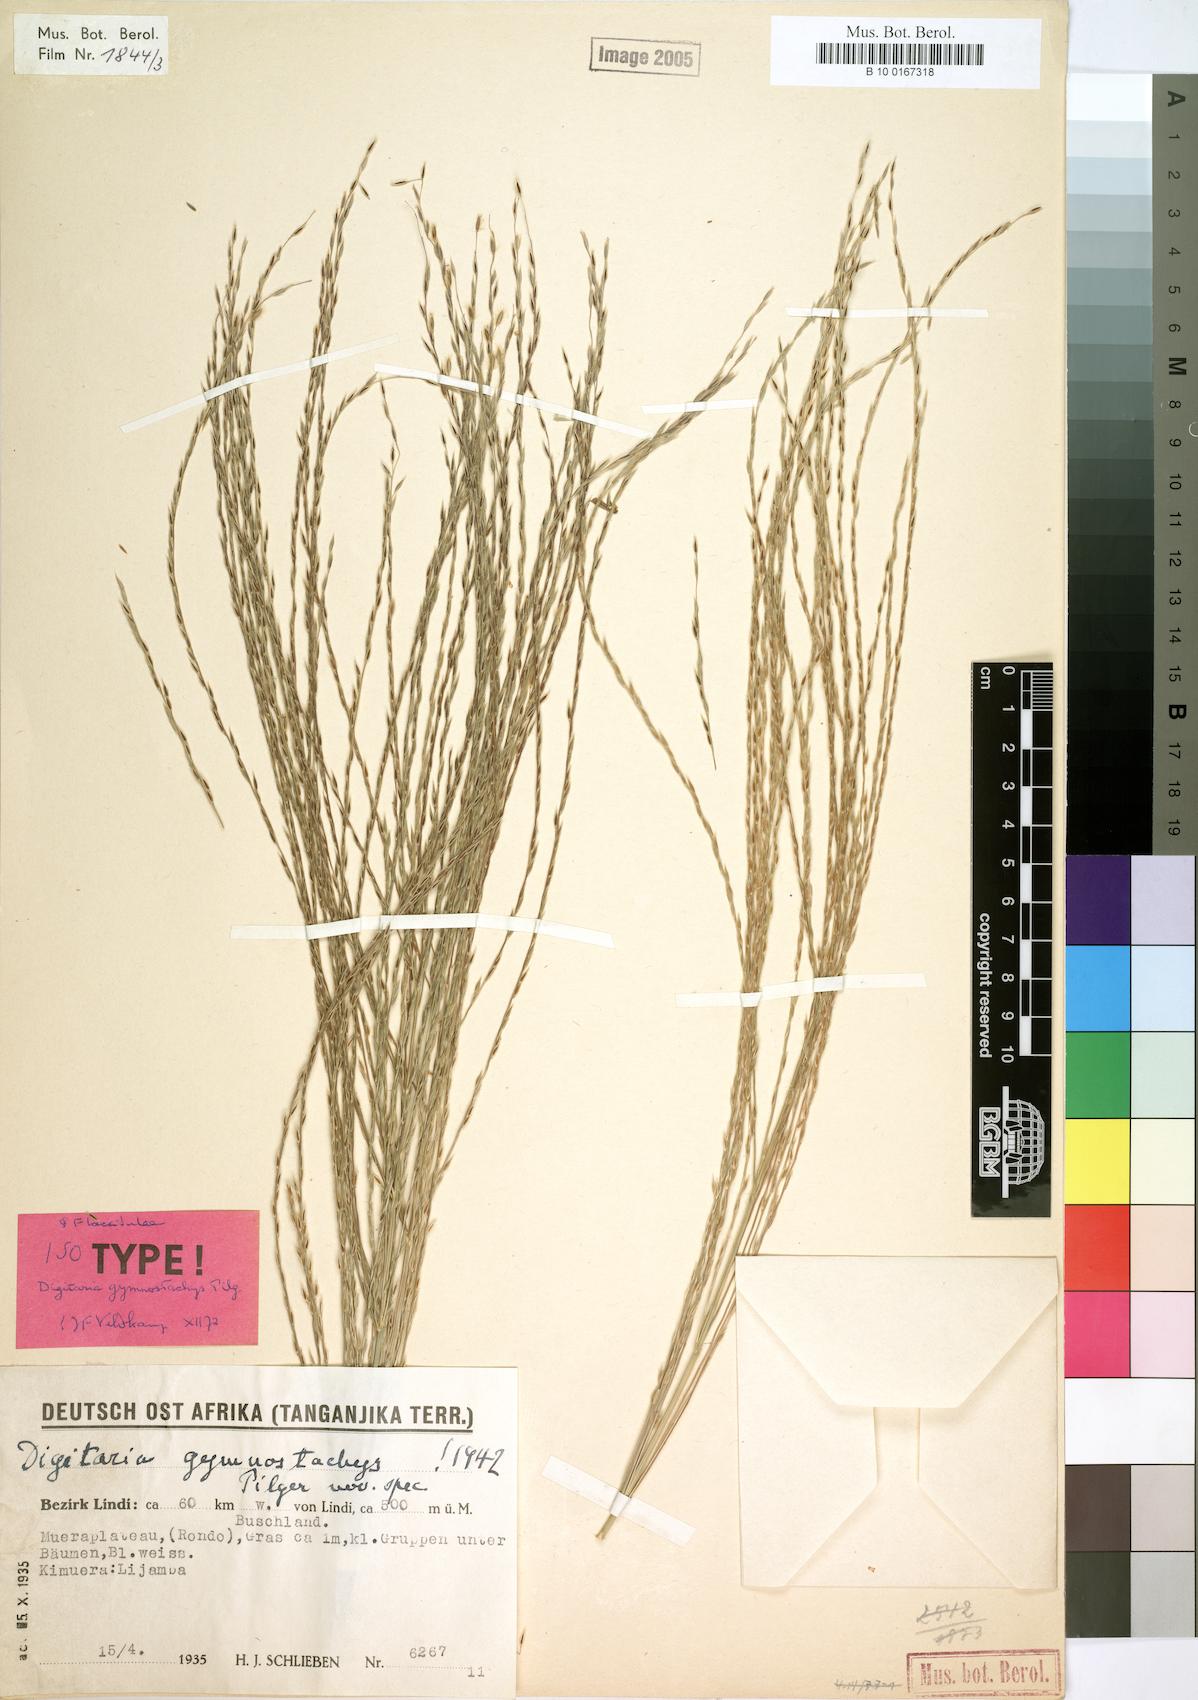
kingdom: Plantae
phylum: Tracheophyta
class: Liliopsida
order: Poales
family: Poaceae
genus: Digitaria
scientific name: Digitaria gymnostachys
